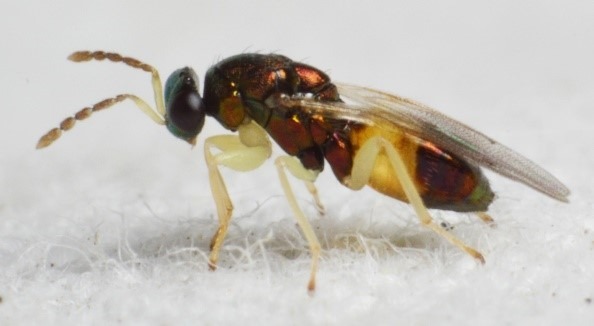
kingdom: Animalia
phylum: Arthropoda
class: Insecta
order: Hymenoptera
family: Eulophidae
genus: Eulophus
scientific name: Eulophus ramicornis
